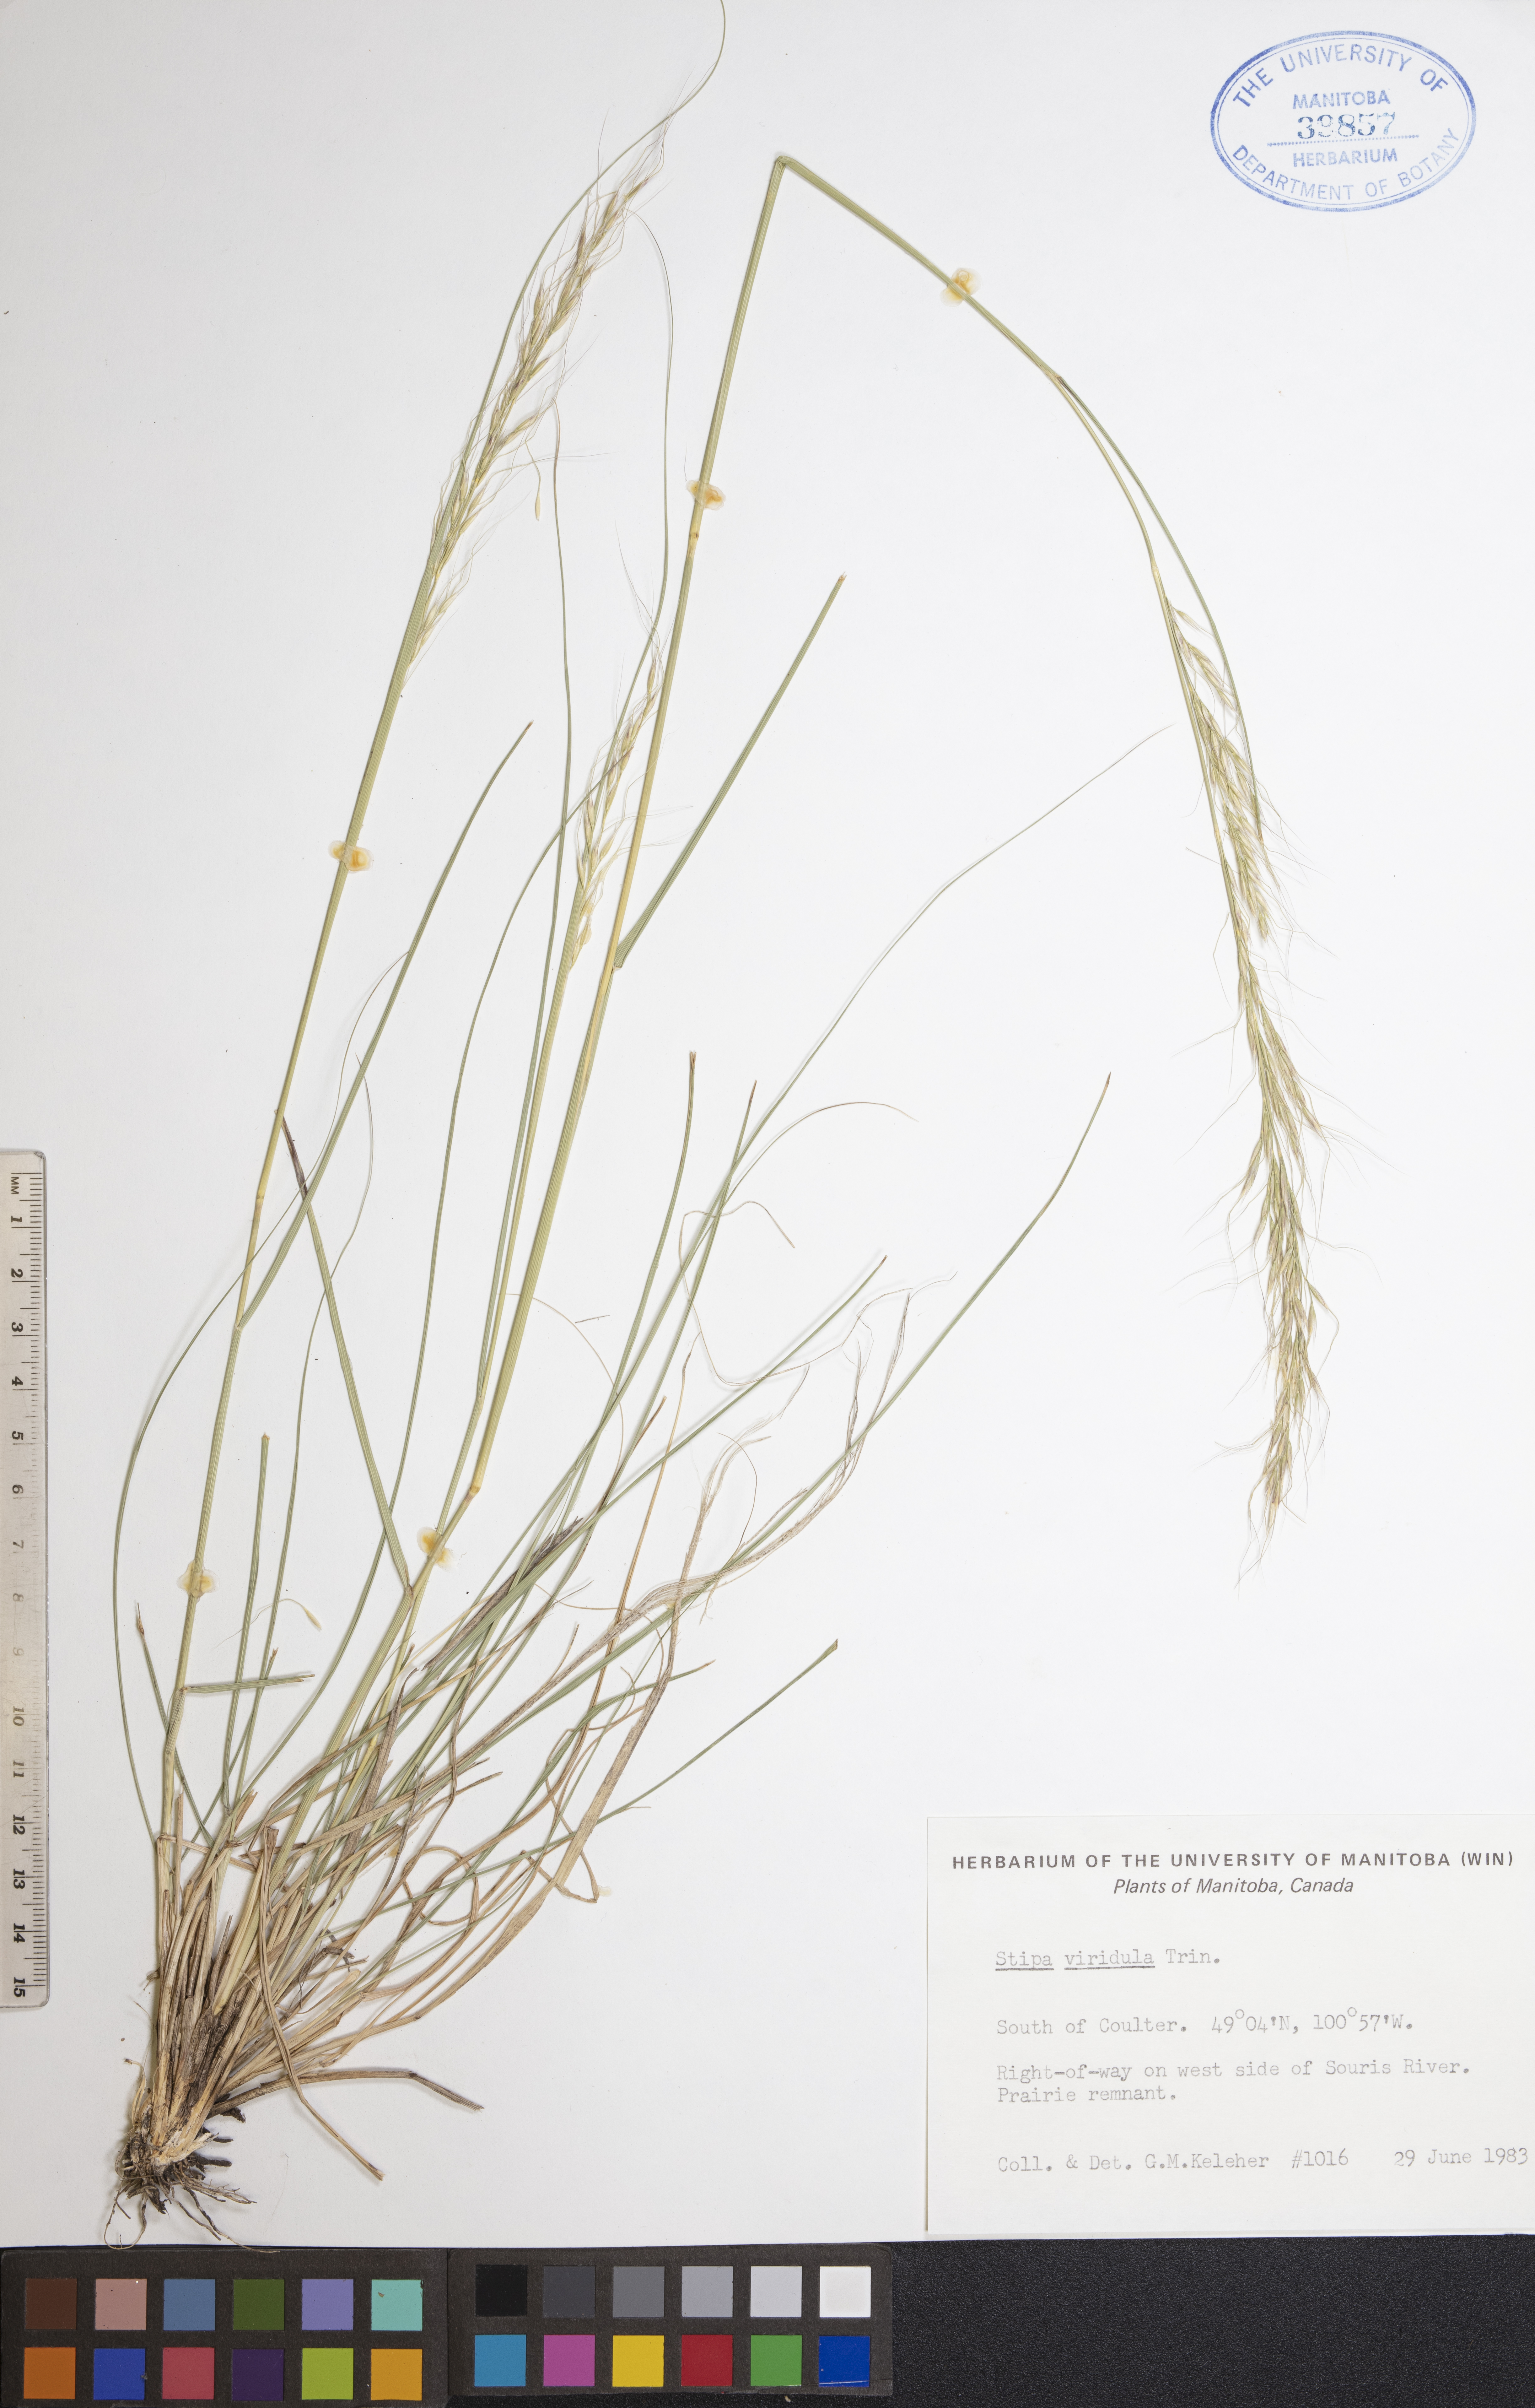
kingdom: Plantae
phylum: Tracheophyta
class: Liliopsida
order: Poales
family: Poaceae
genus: Nassella
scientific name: Nassella viridula
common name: Green needlegrass
